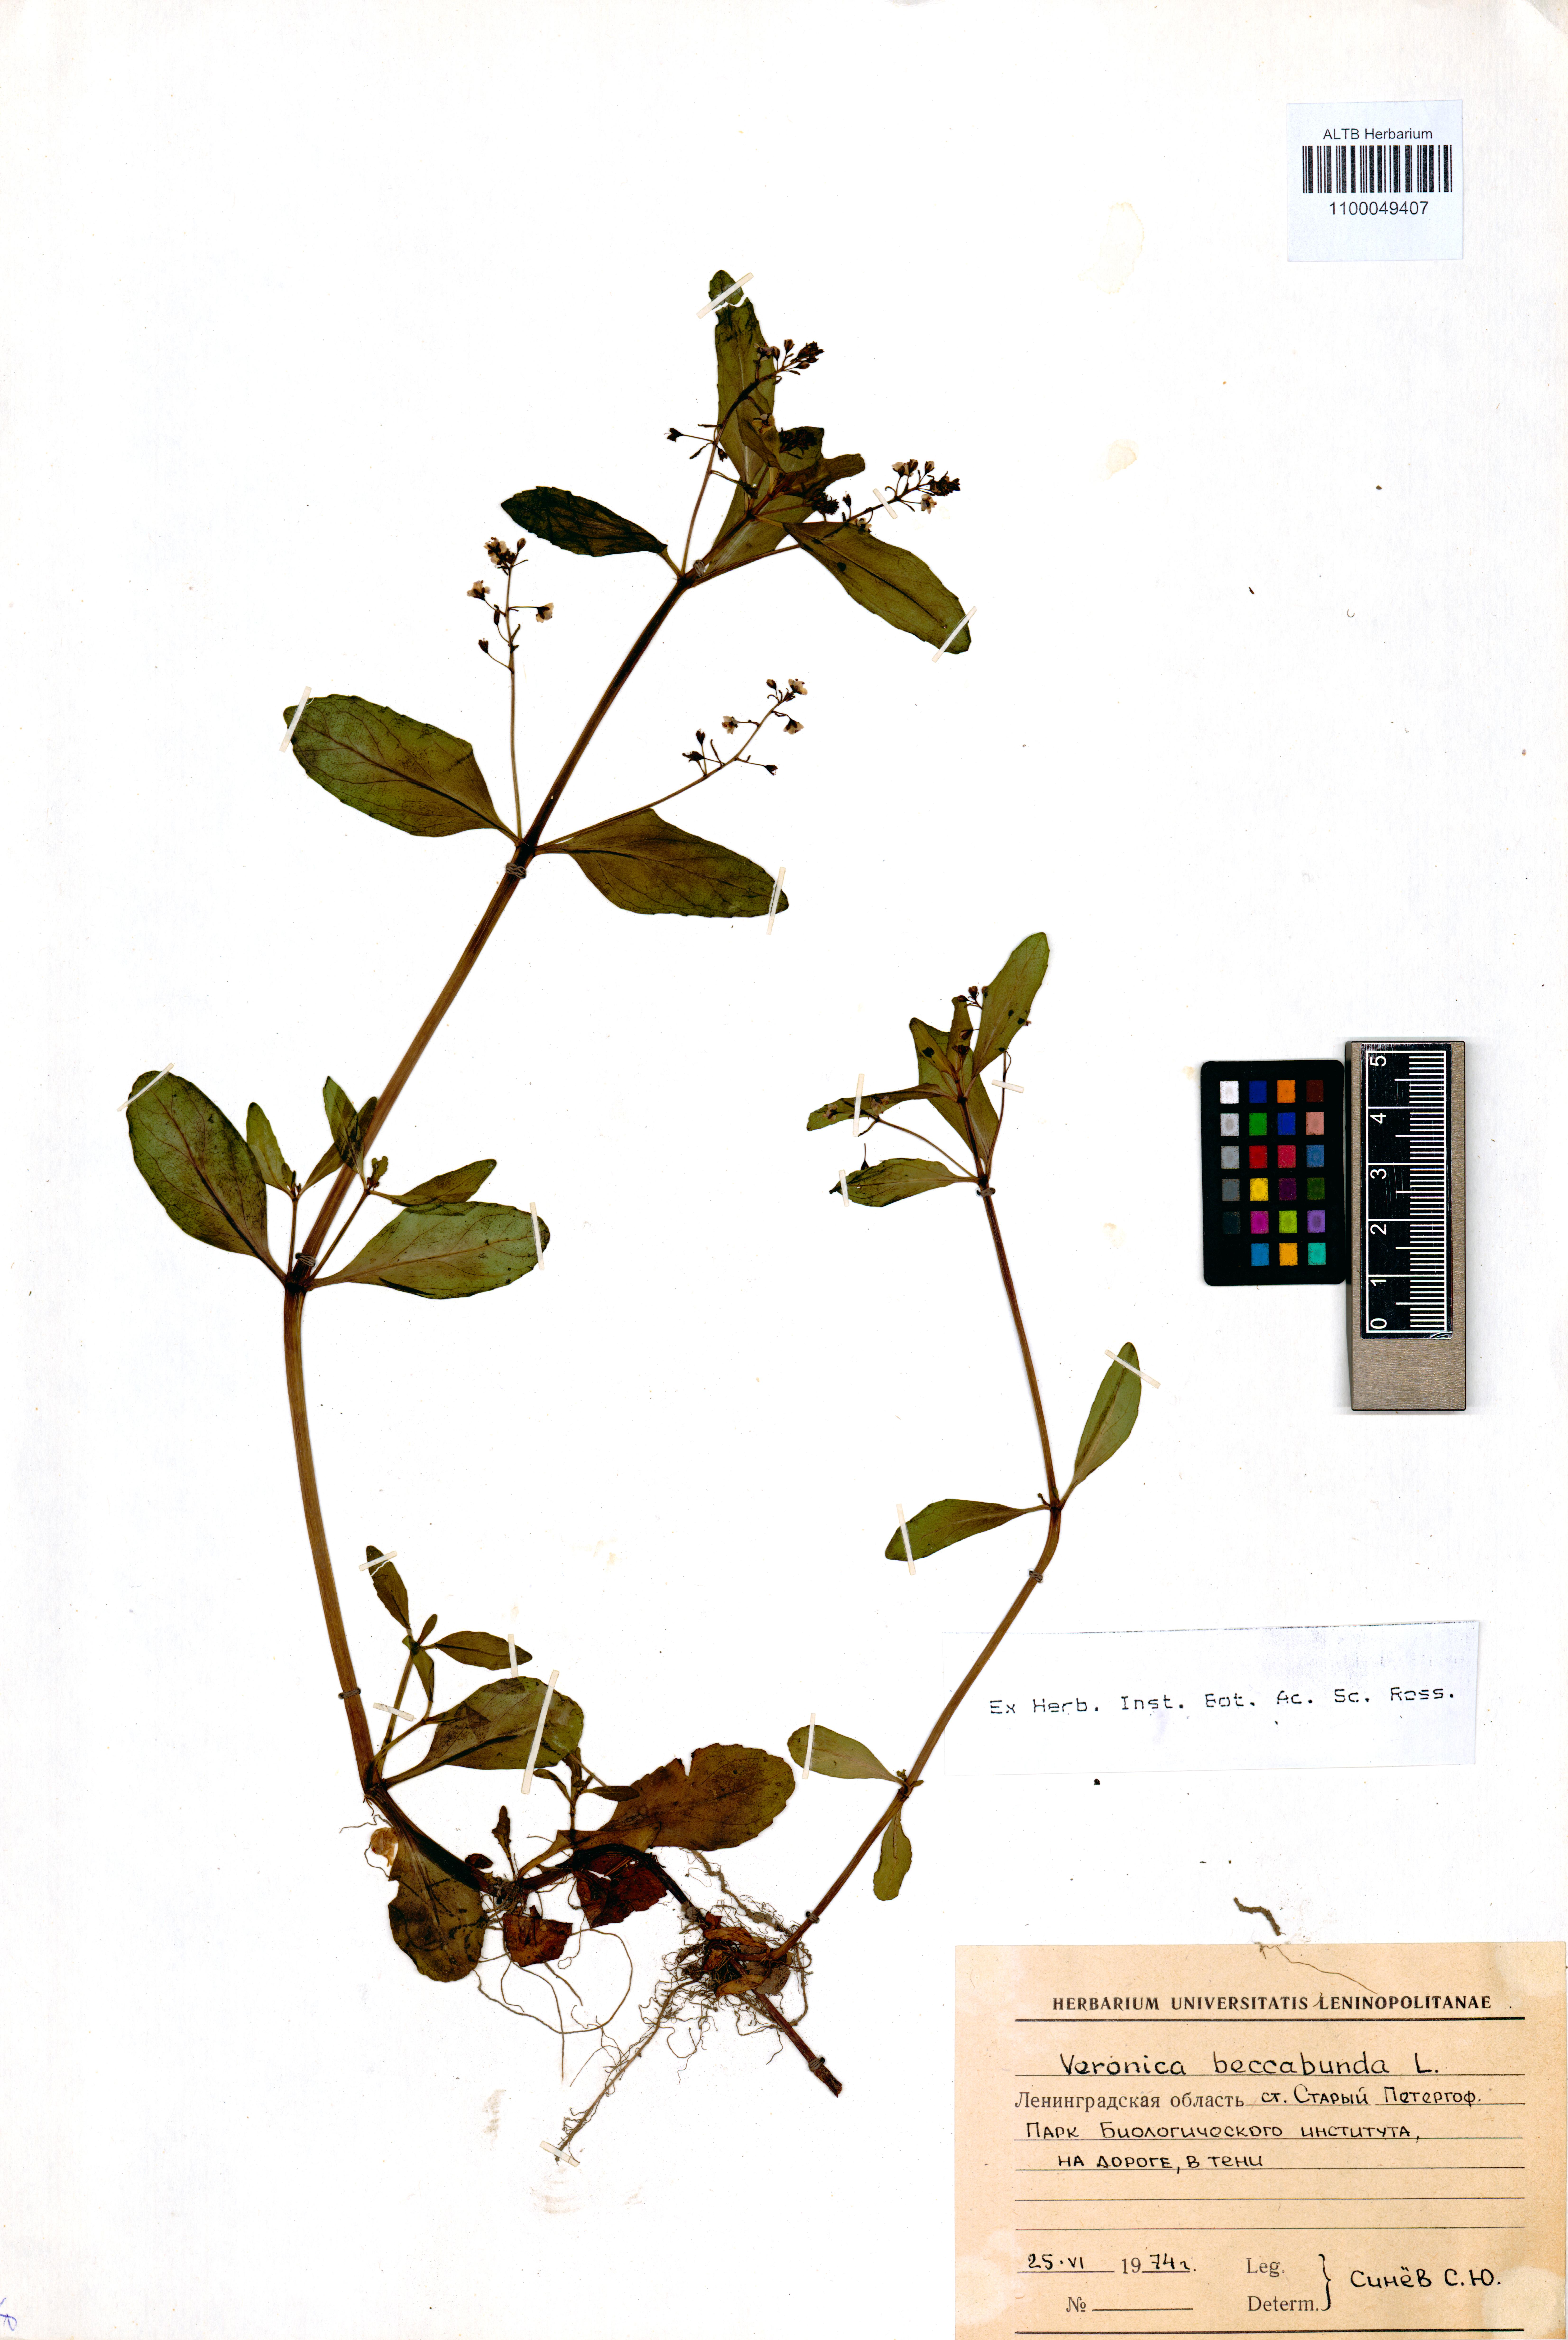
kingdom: Plantae
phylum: Tracheophyta
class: Magnoliopsida
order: Lamiales
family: Plantaginaceae
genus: Veronica
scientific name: Veronica beccabunga
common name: Brooklime
